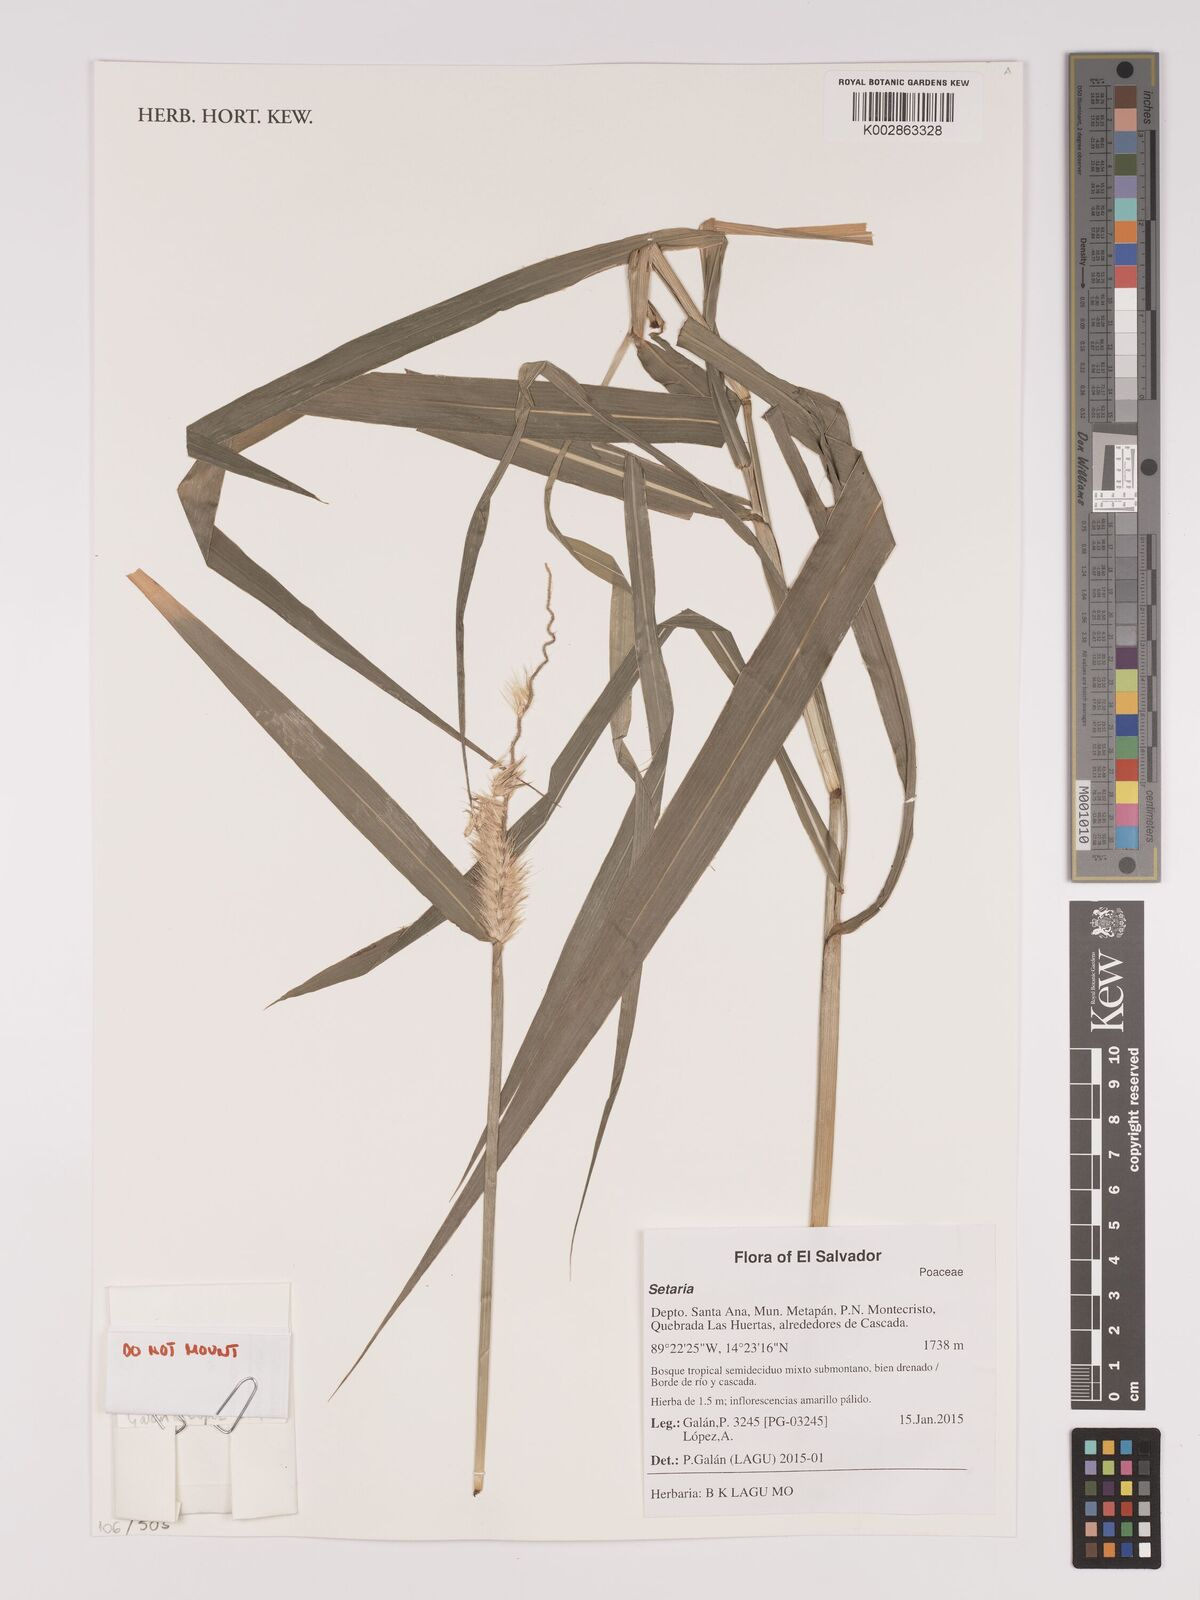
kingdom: Plantae
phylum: Tracheophyta
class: Liliopsida
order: Poales
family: Poaceae
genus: Setaria
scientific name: Setaria
